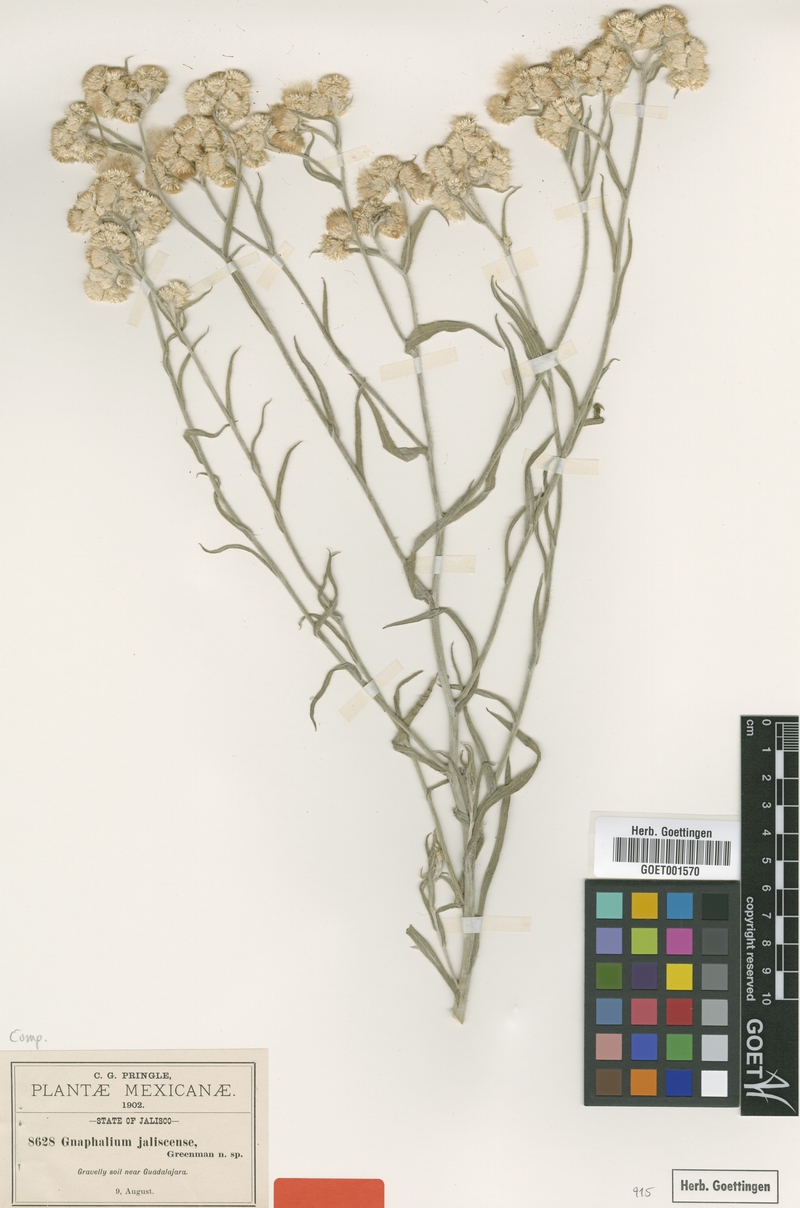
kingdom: Plantae
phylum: Tracheophyta
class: Magnoliopsida
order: Asterales
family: Asteraceae
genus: Pseudognaphalium
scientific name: Pseudognaphalium jaliscense
